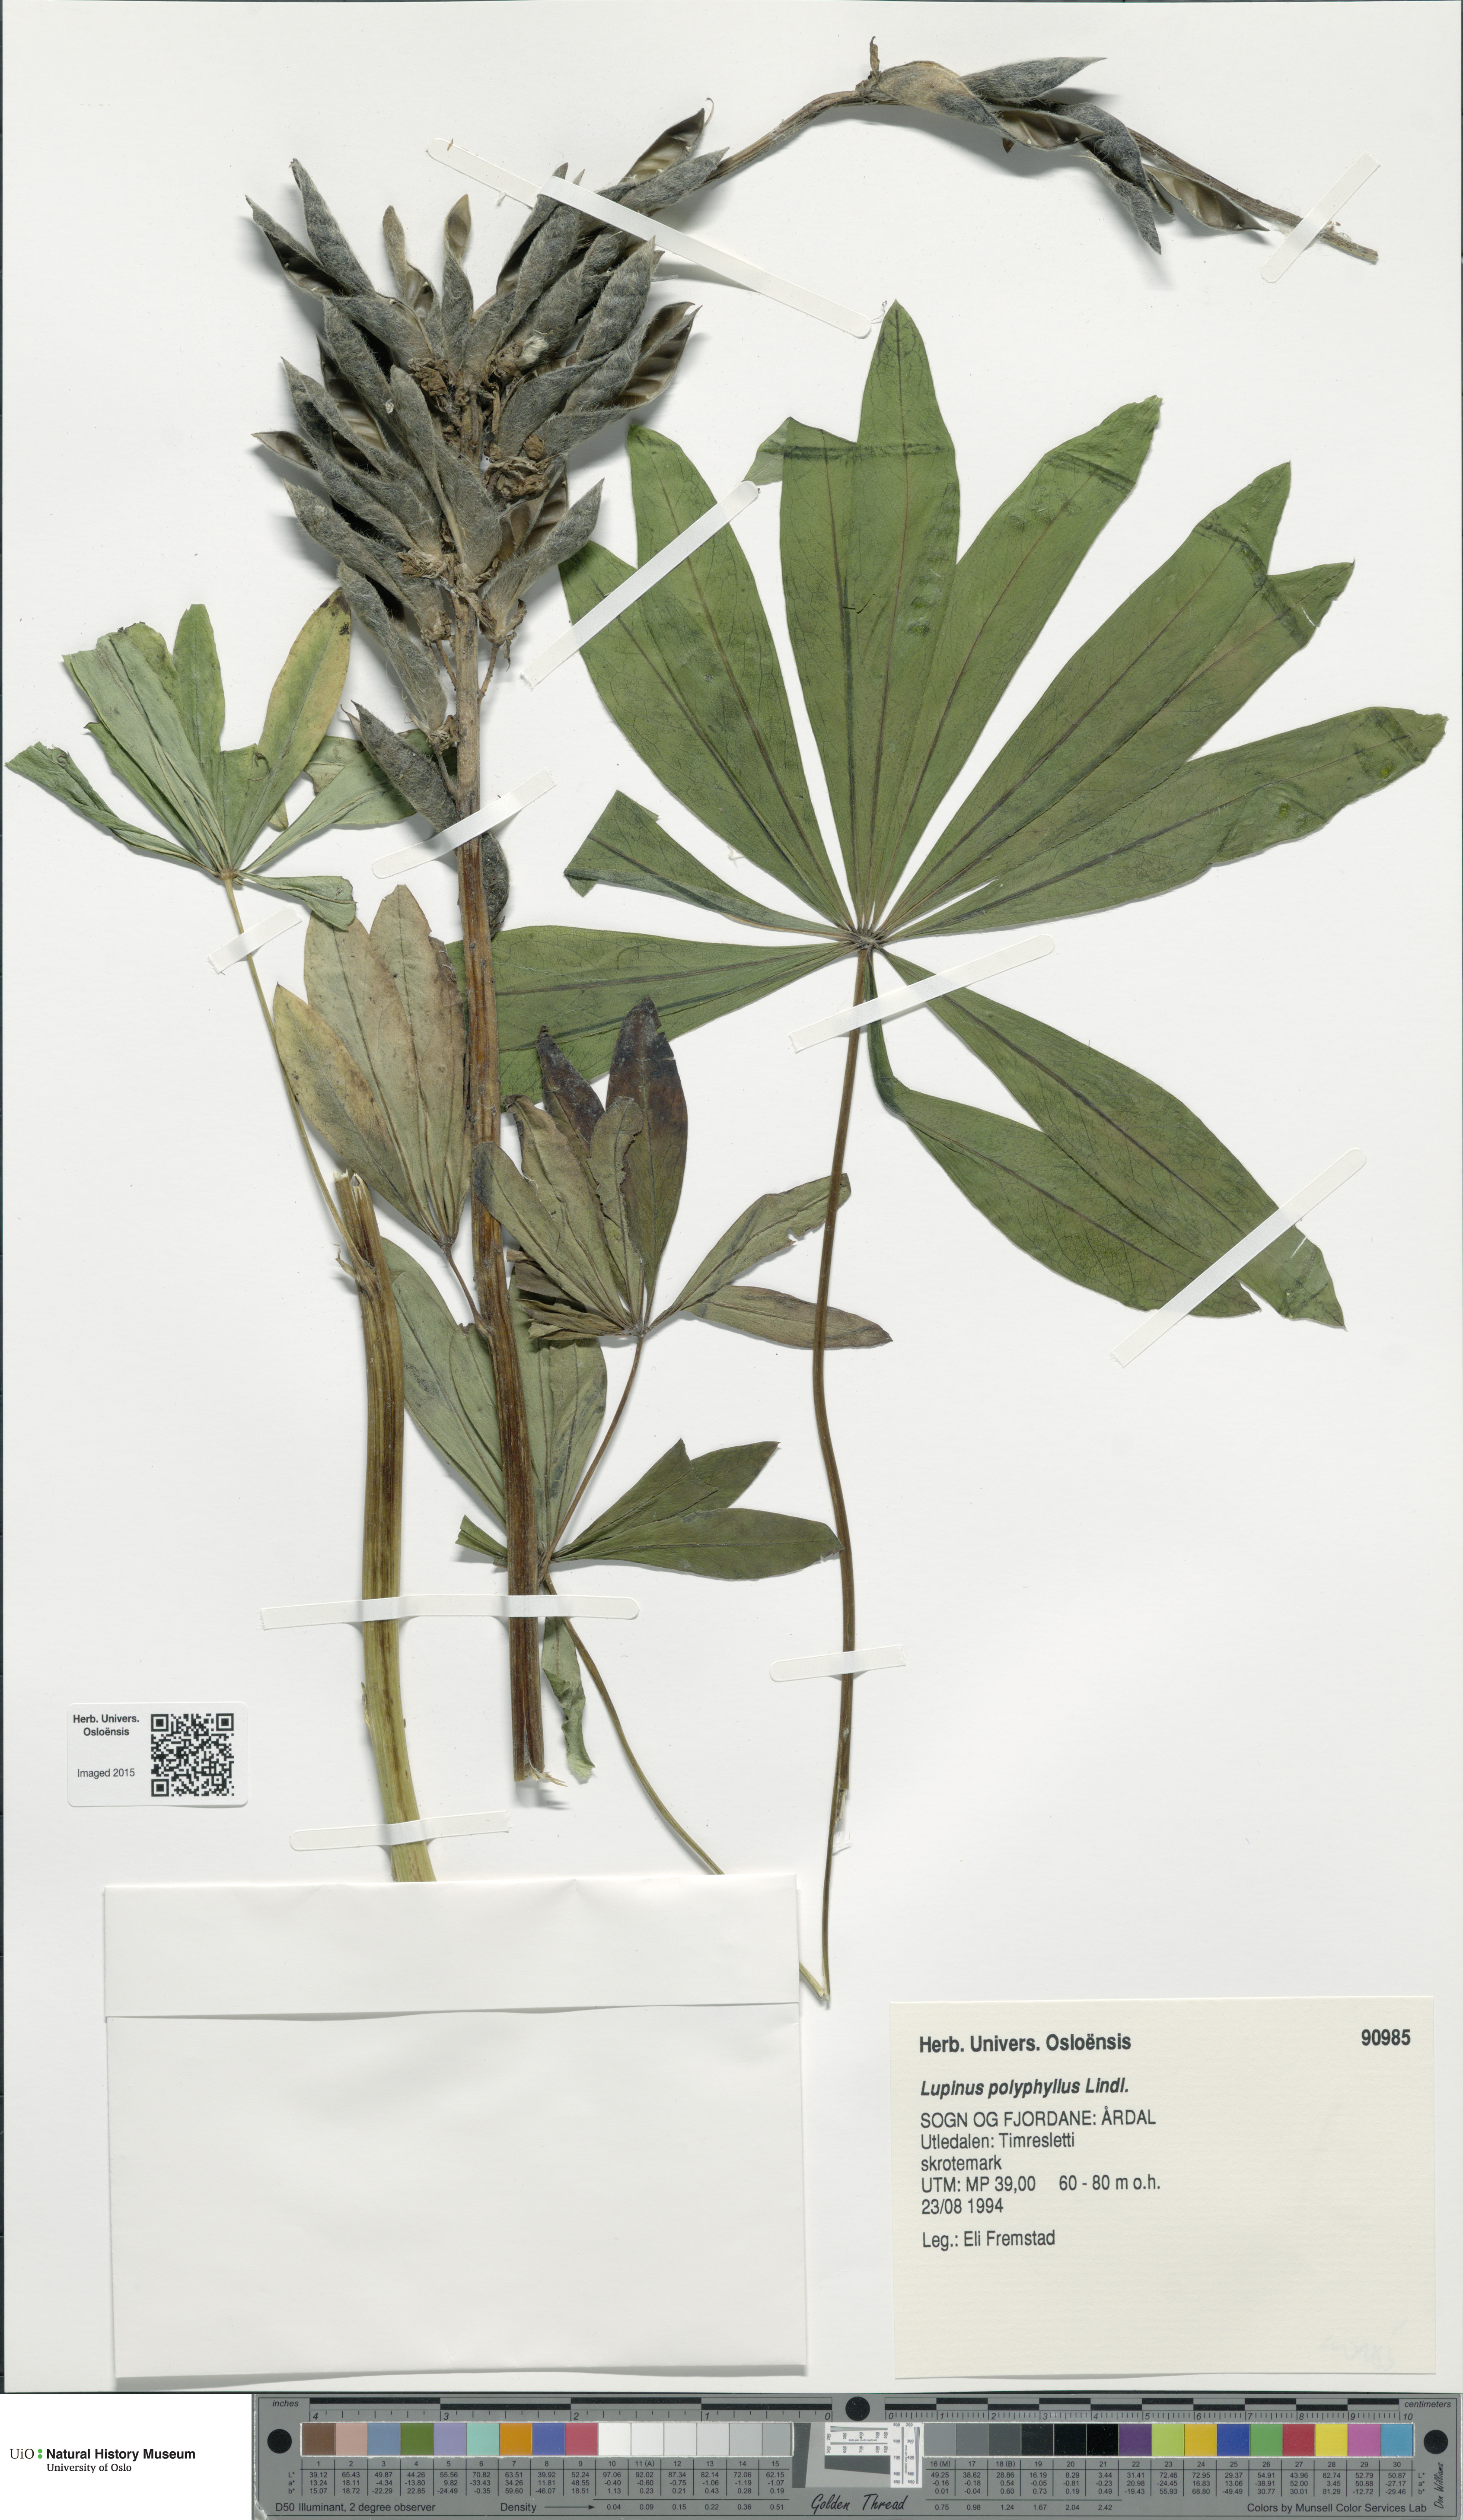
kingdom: Plantae
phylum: Tracheophyta
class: Magnoliopsida
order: Fabales
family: Fabaceae
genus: Lupinus
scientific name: Lupinus polyphyllus
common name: Garden lupin
